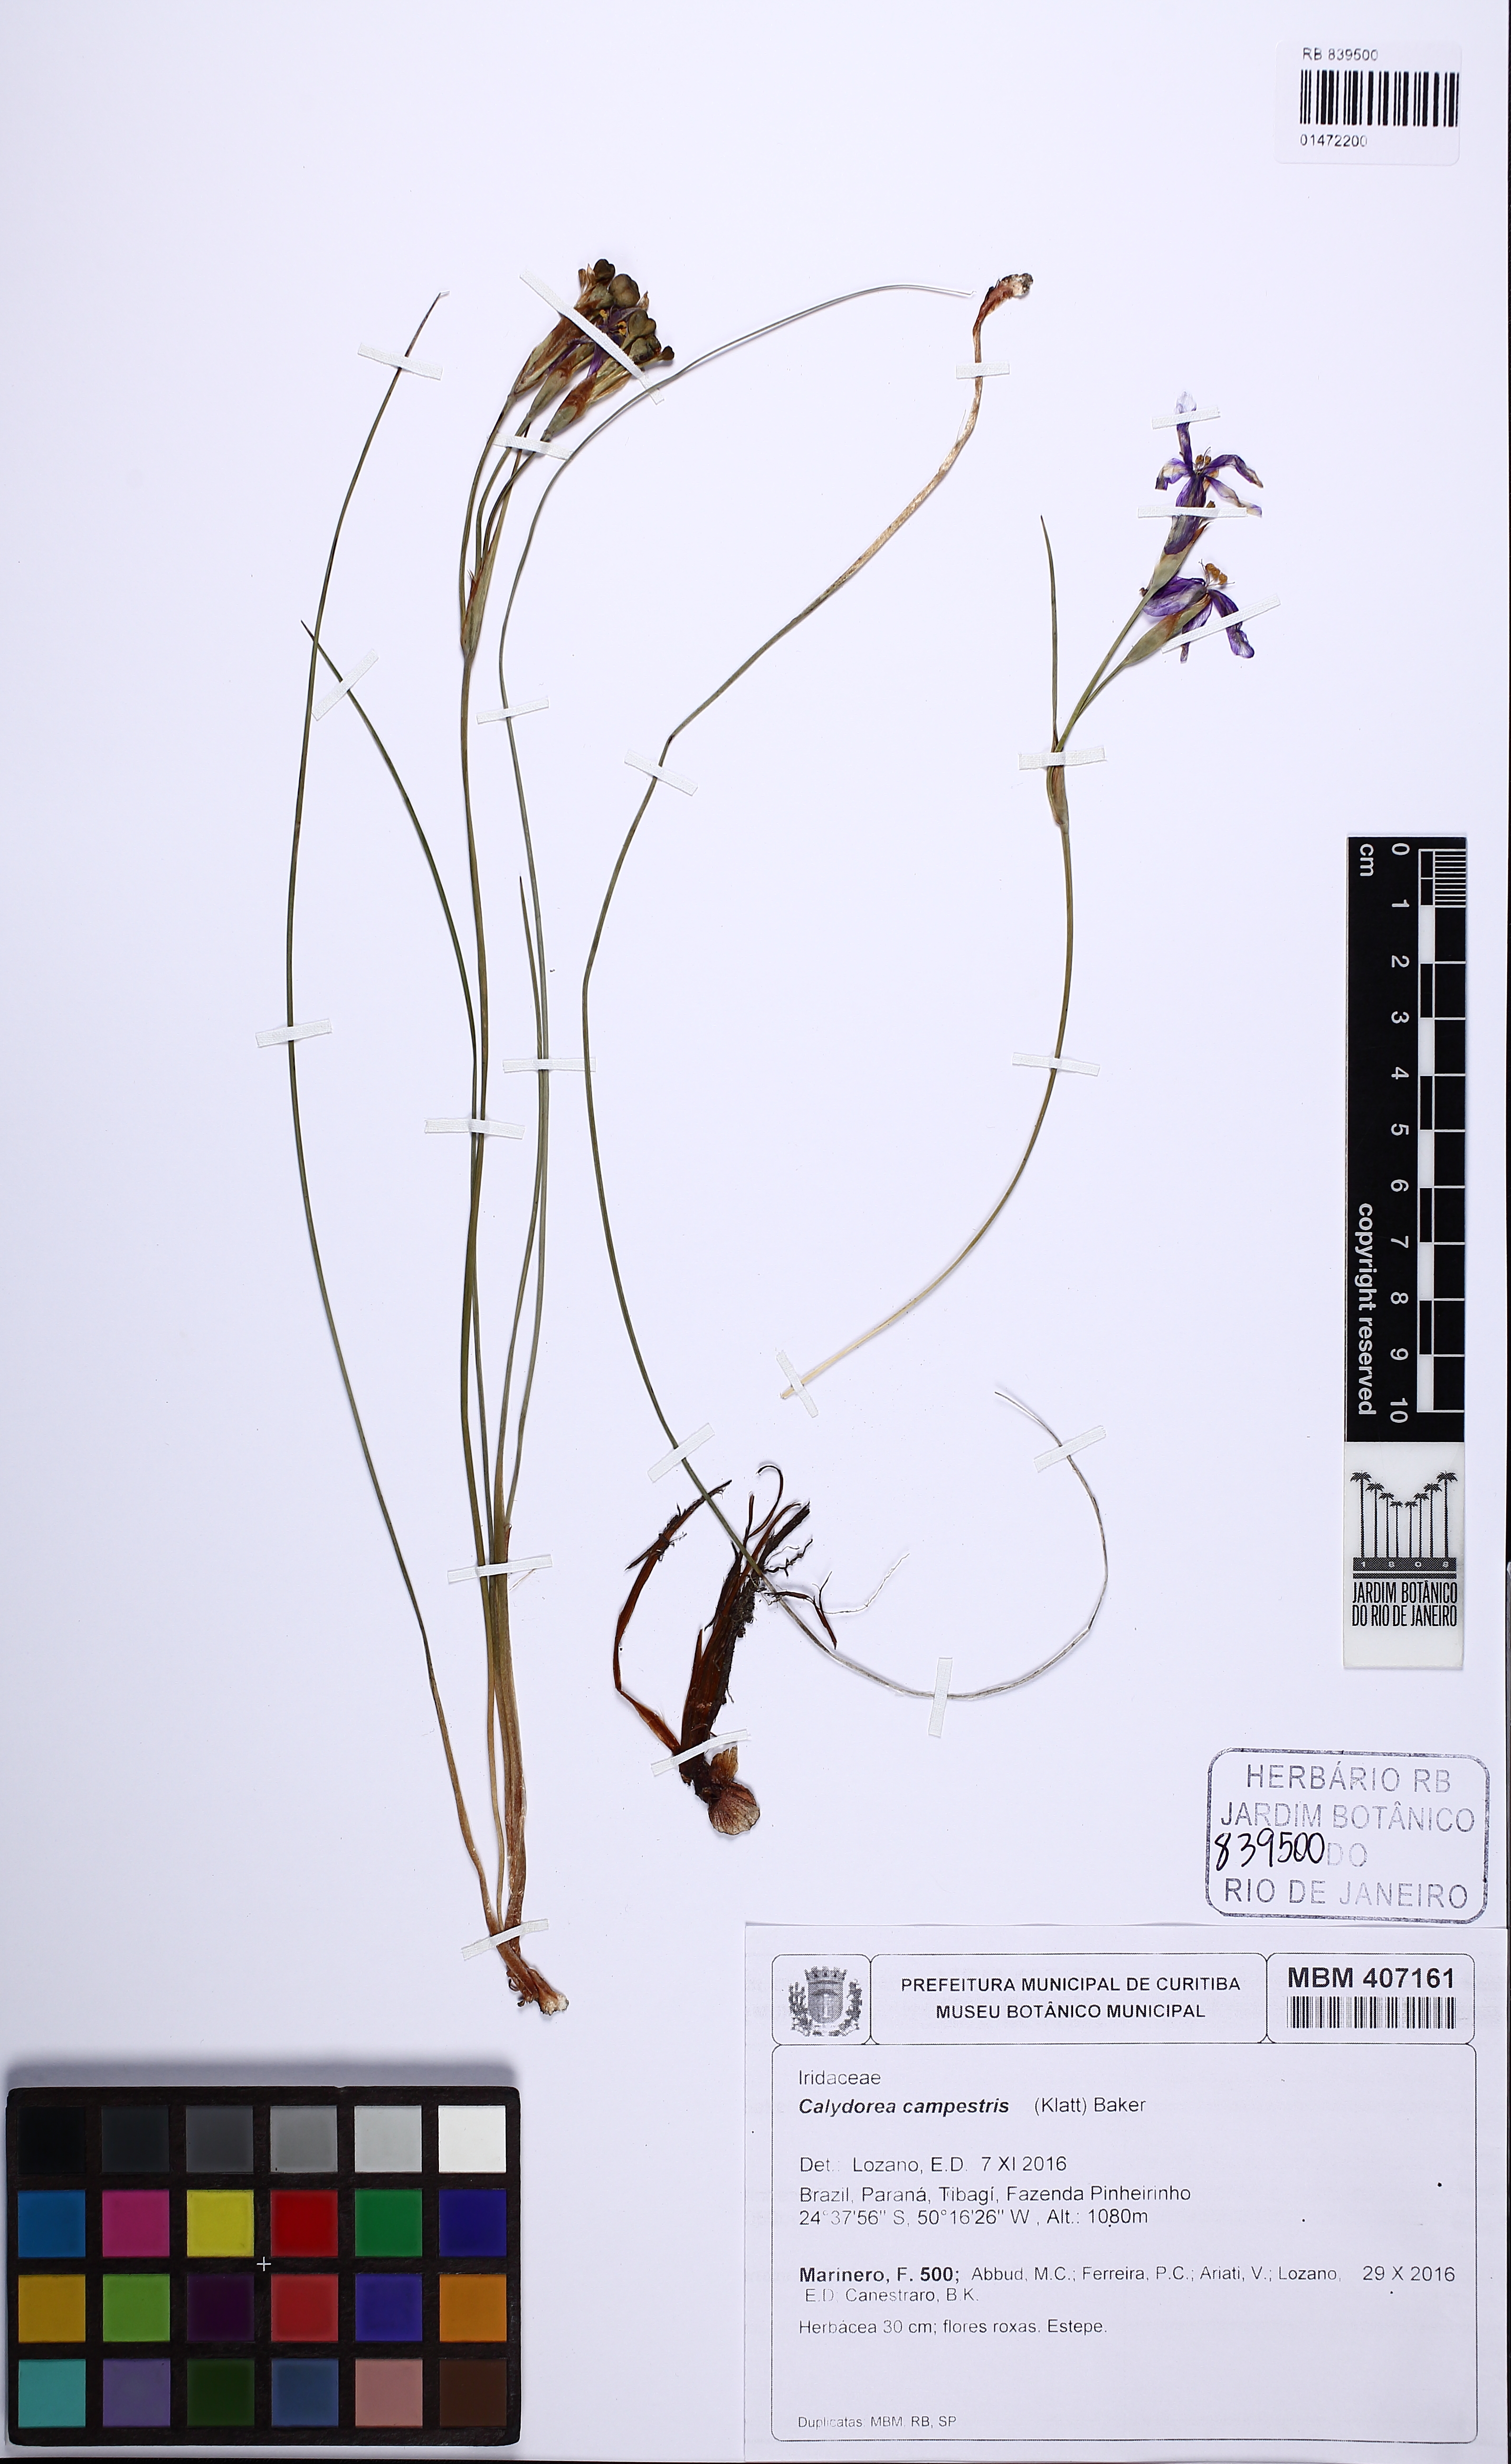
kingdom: Plantae
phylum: Tracheophyta
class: Liliopsida
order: Asparagales
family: Iridaceae
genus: Calydorea
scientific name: Calydorea campestris
